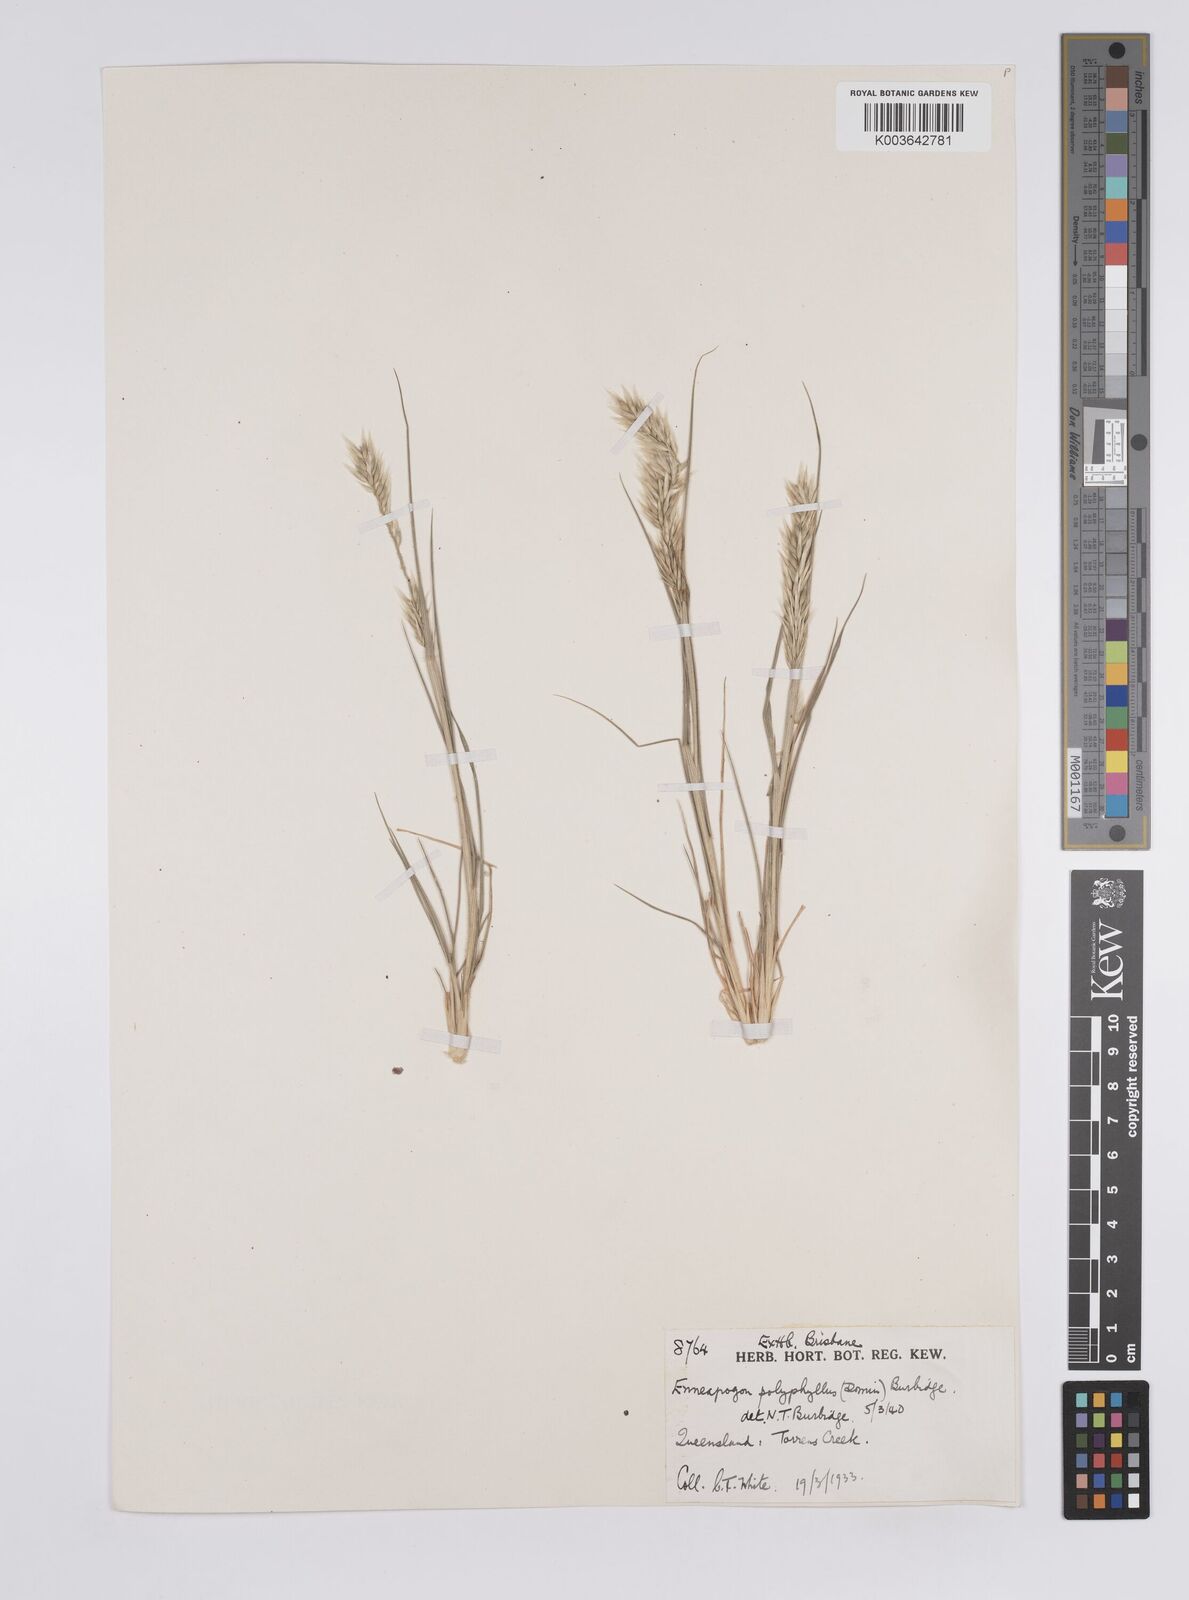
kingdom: Plantae
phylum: Tracheophyta
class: Liliopsida
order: Poales
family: Poaceae
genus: Enneapogon
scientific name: Enneapogon polyphyllus
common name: Leafy nineawn
